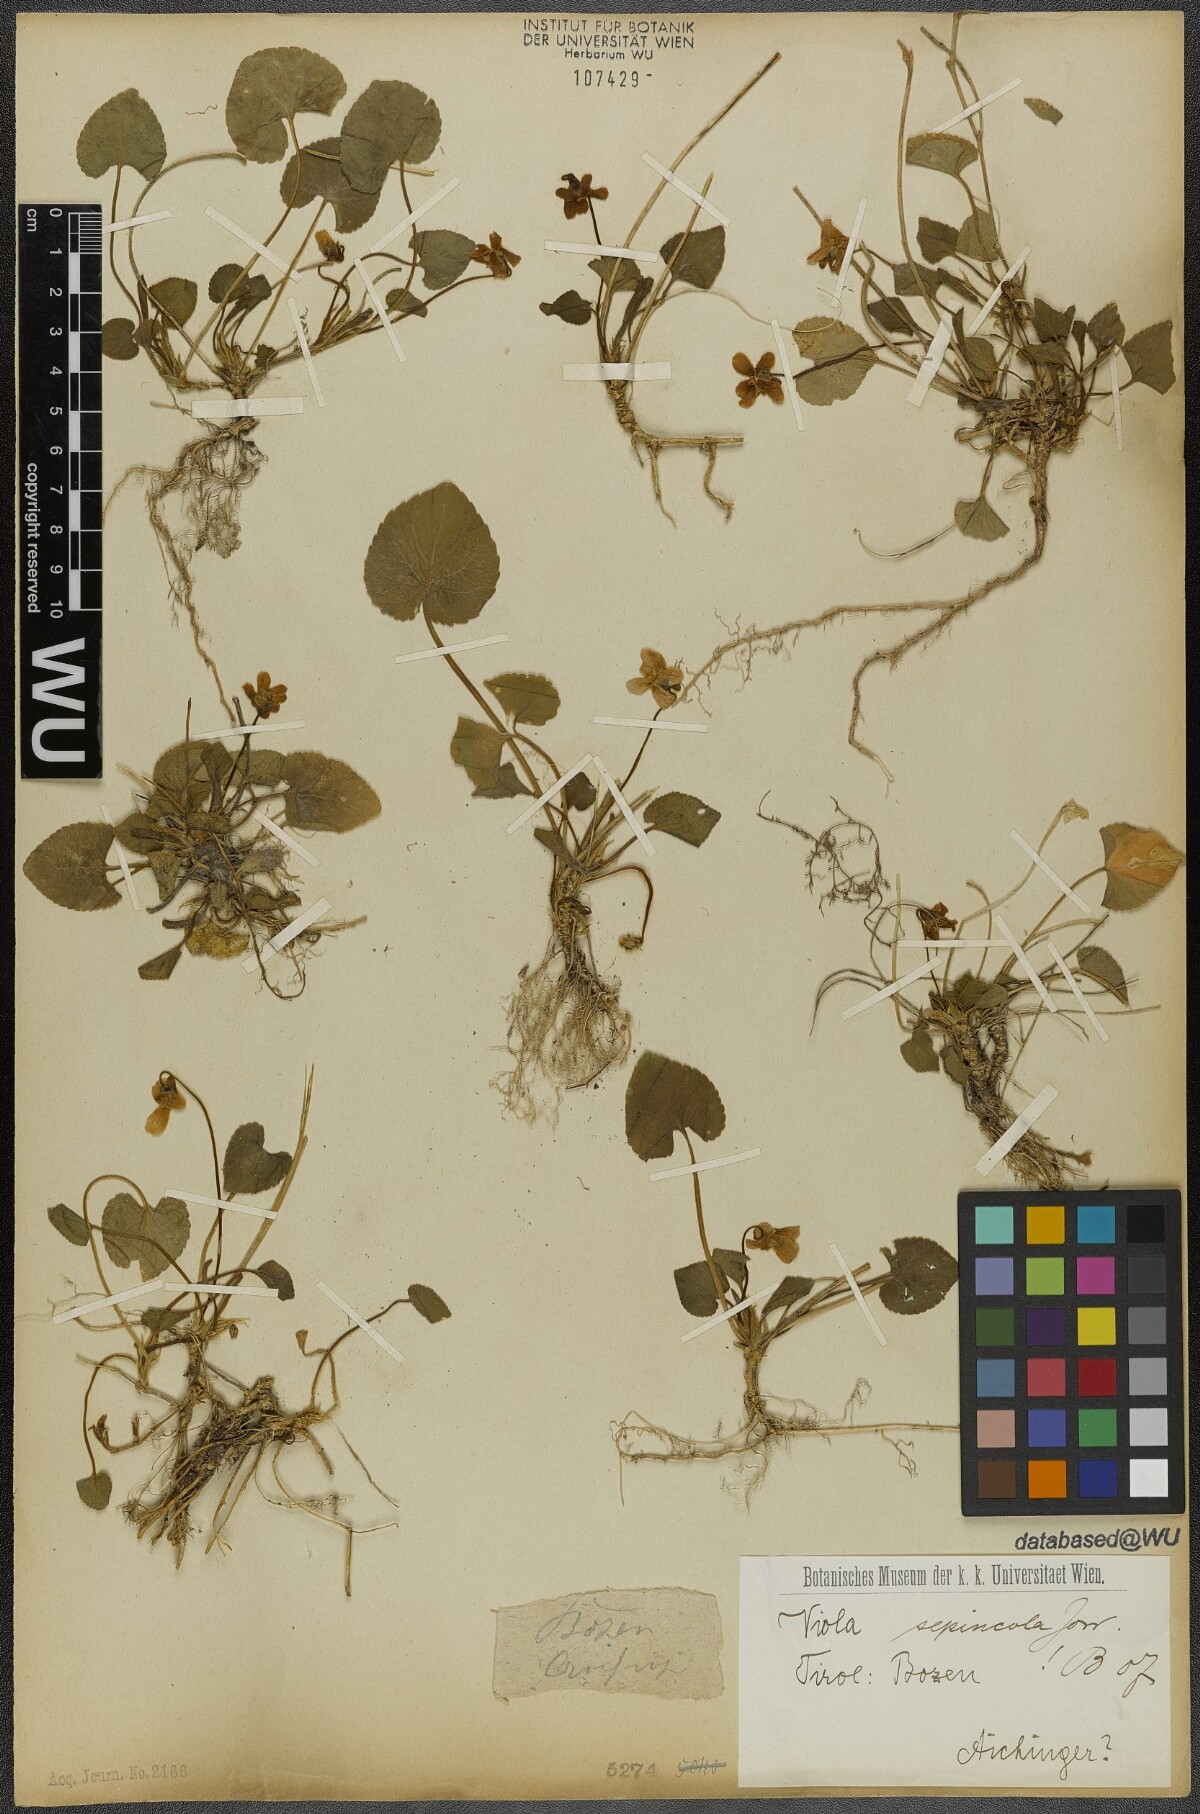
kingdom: Plantae
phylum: Tracheophyta
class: Magnoliopsida
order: Malpighiales
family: Violaceae
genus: Viola
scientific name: Viola suavis
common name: Russian violet
